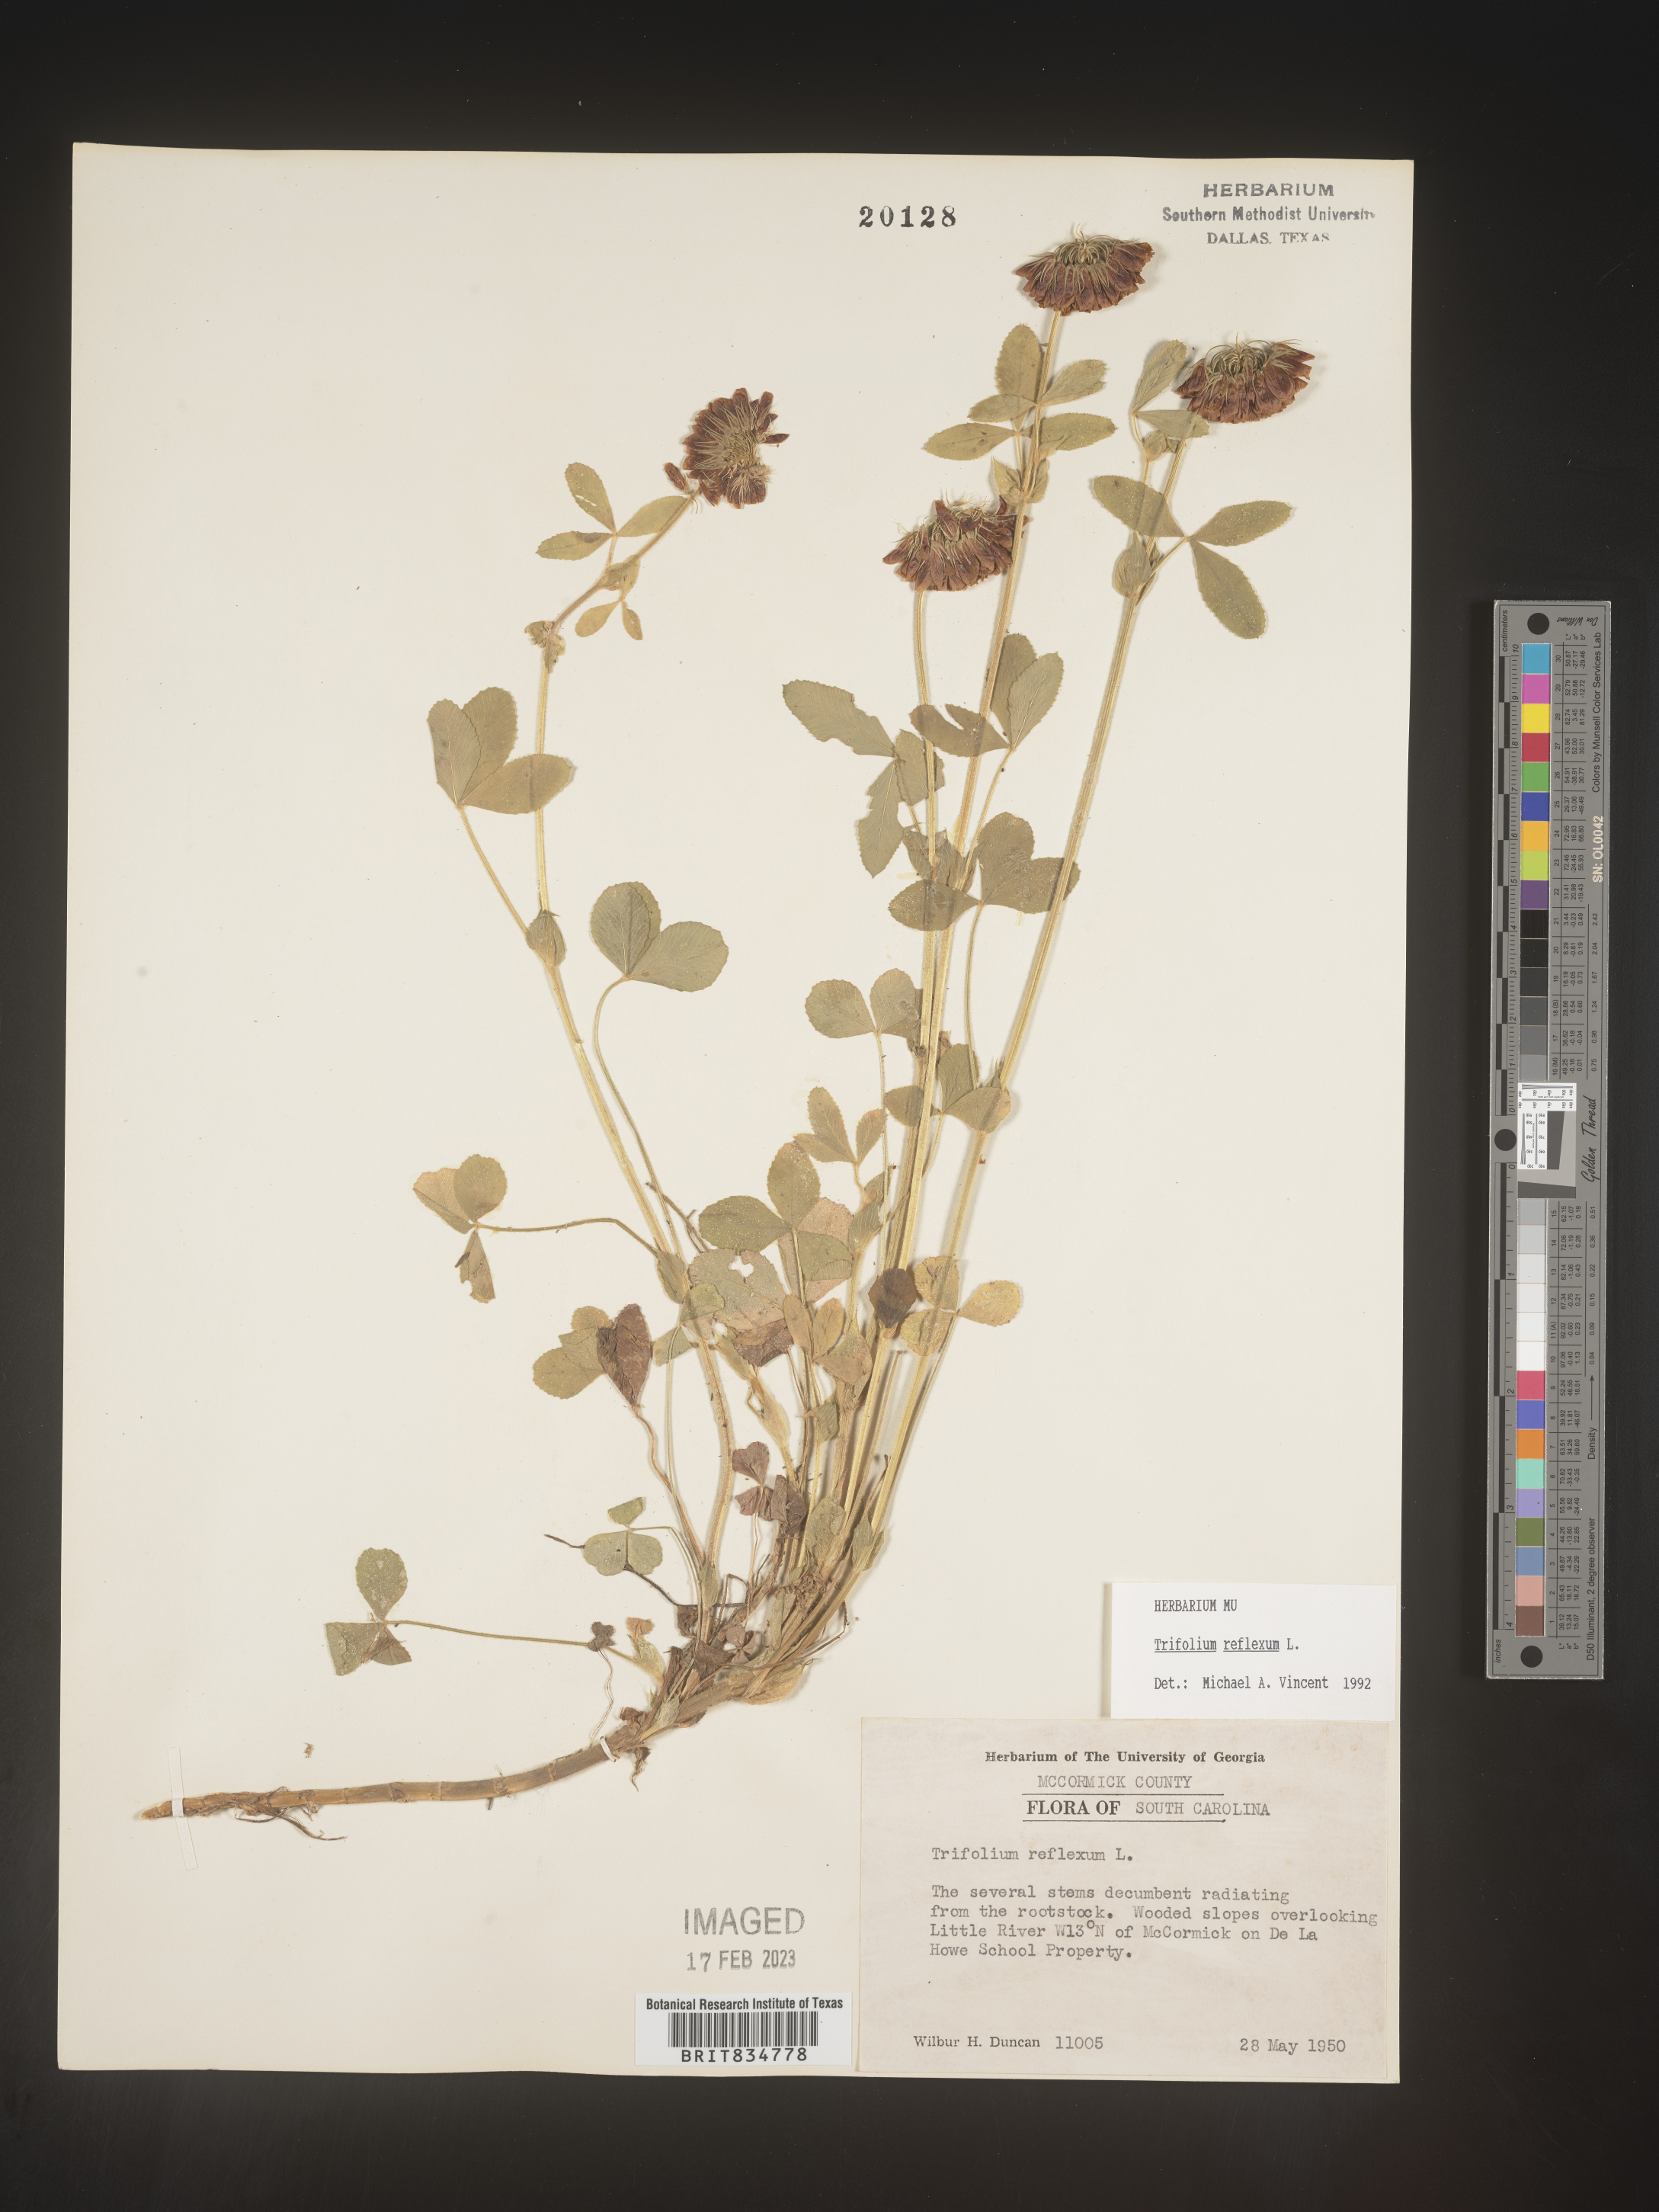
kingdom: Plantae
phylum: Tracheophyta
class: Magnoliopsida
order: Fabales
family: Fabaceae
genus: Trifolium
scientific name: Trifolium reflexum
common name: Buffalo clover
